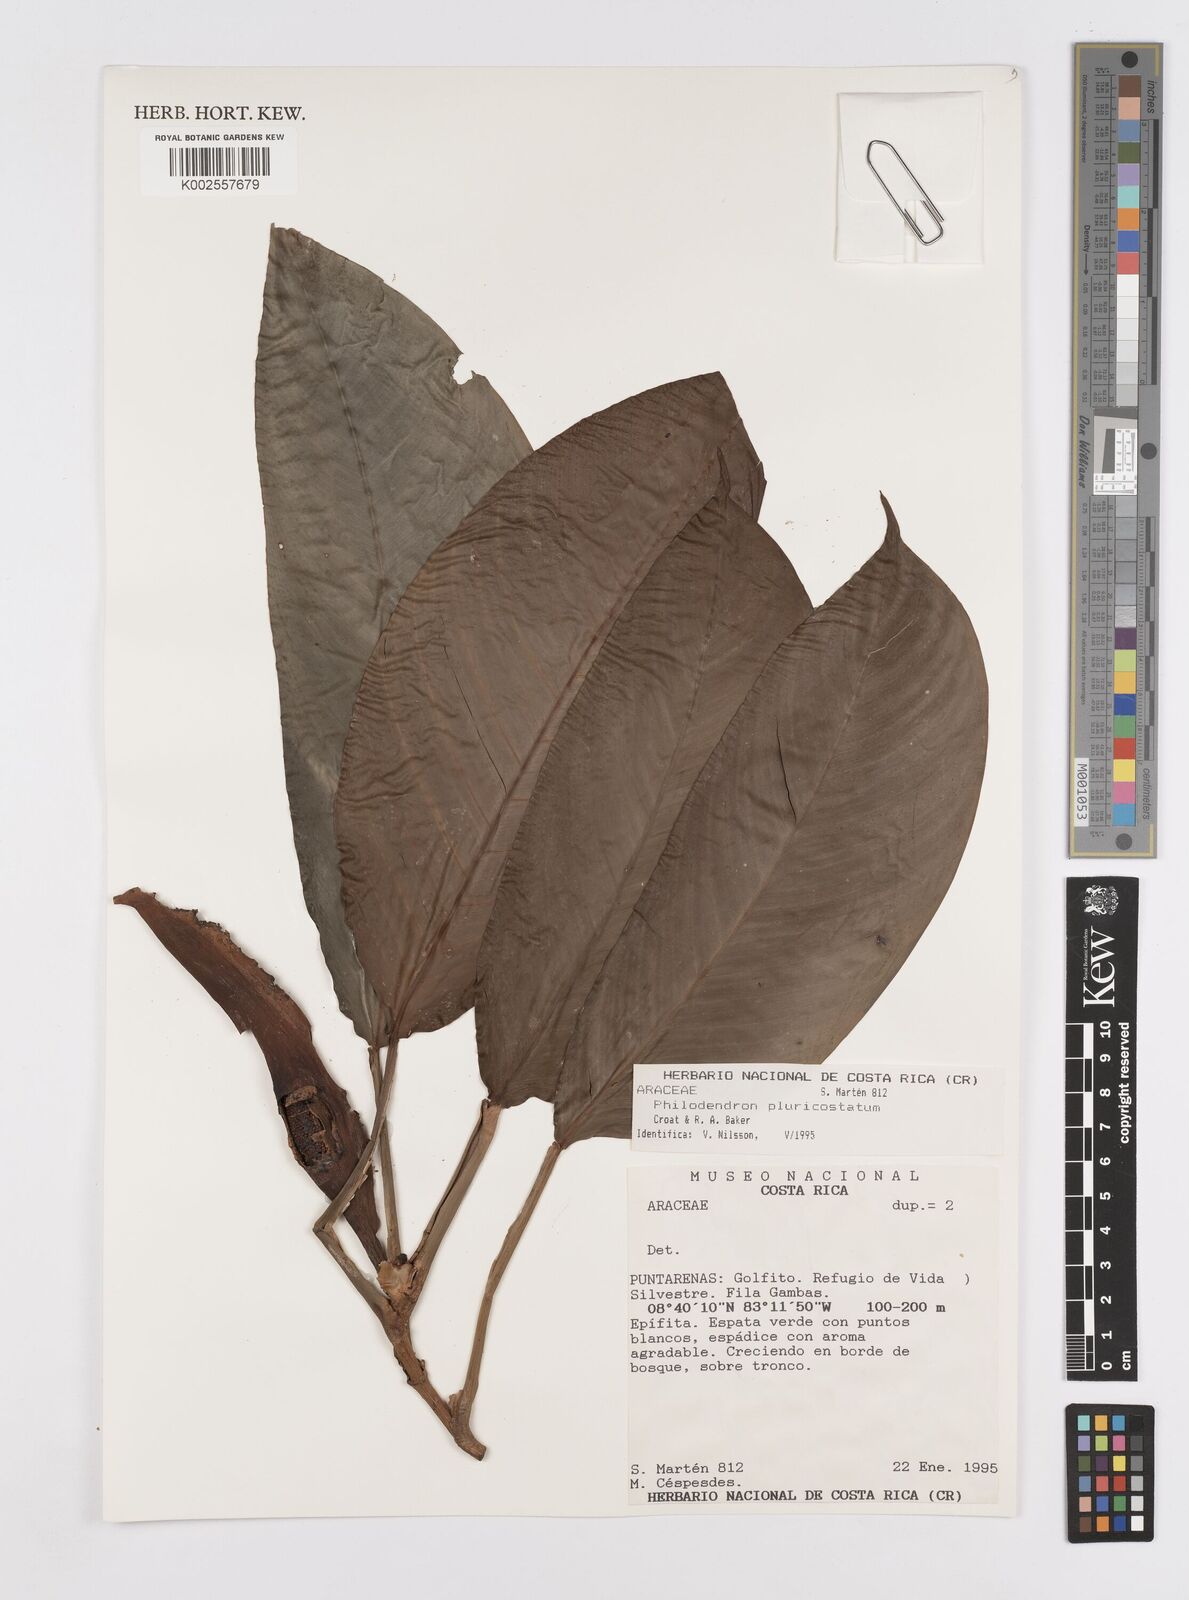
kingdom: Plantae
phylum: Tracheophyta
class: Liliopsida
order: Alismatales
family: Araceae
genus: Philodendron
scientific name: Philodendron
